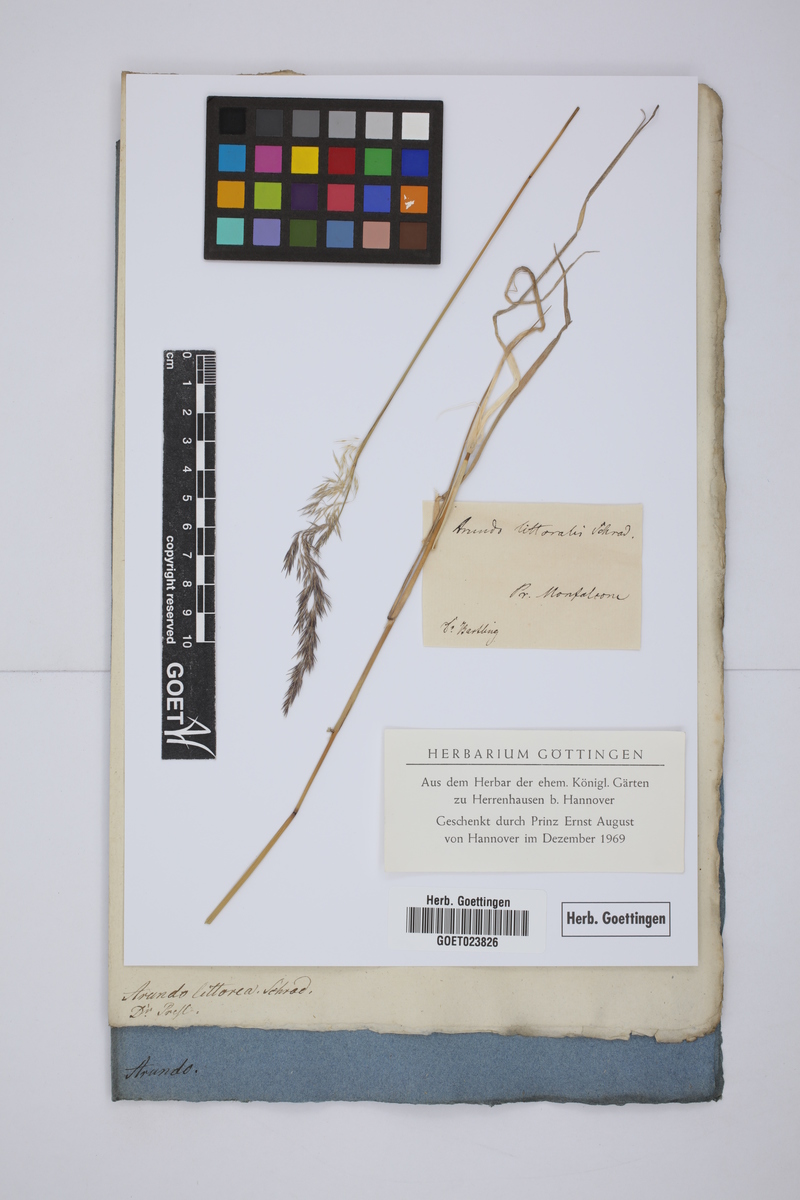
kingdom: Plantae
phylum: Tracheophyta
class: Liliopsida
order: Poales
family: Poaceae
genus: Calamagrostis
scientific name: Calamagrostis pseudophragmites
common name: Coastal small-reed
